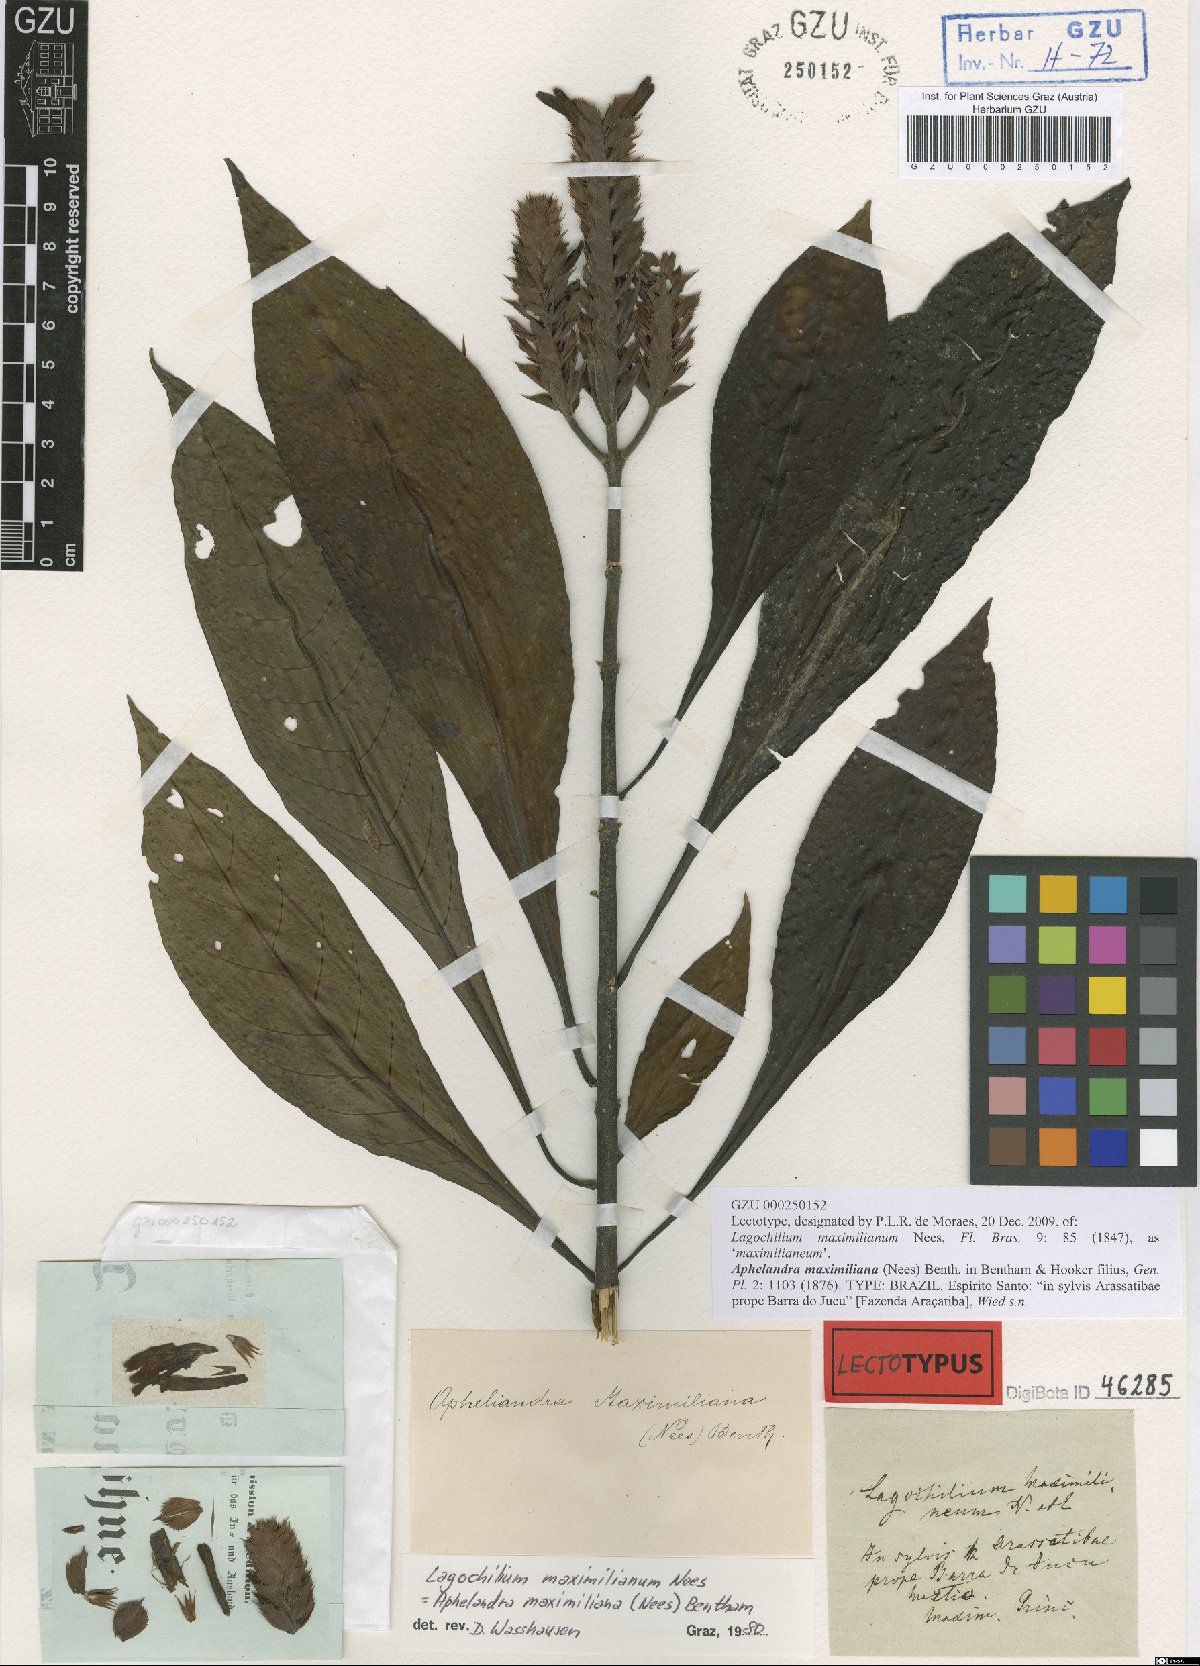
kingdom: Plantae
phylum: Tracheophyta
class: Magnoliopsida
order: Lamiales
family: Acanthaceae
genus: Aphelandra
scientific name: Aphelandra maximiliana
